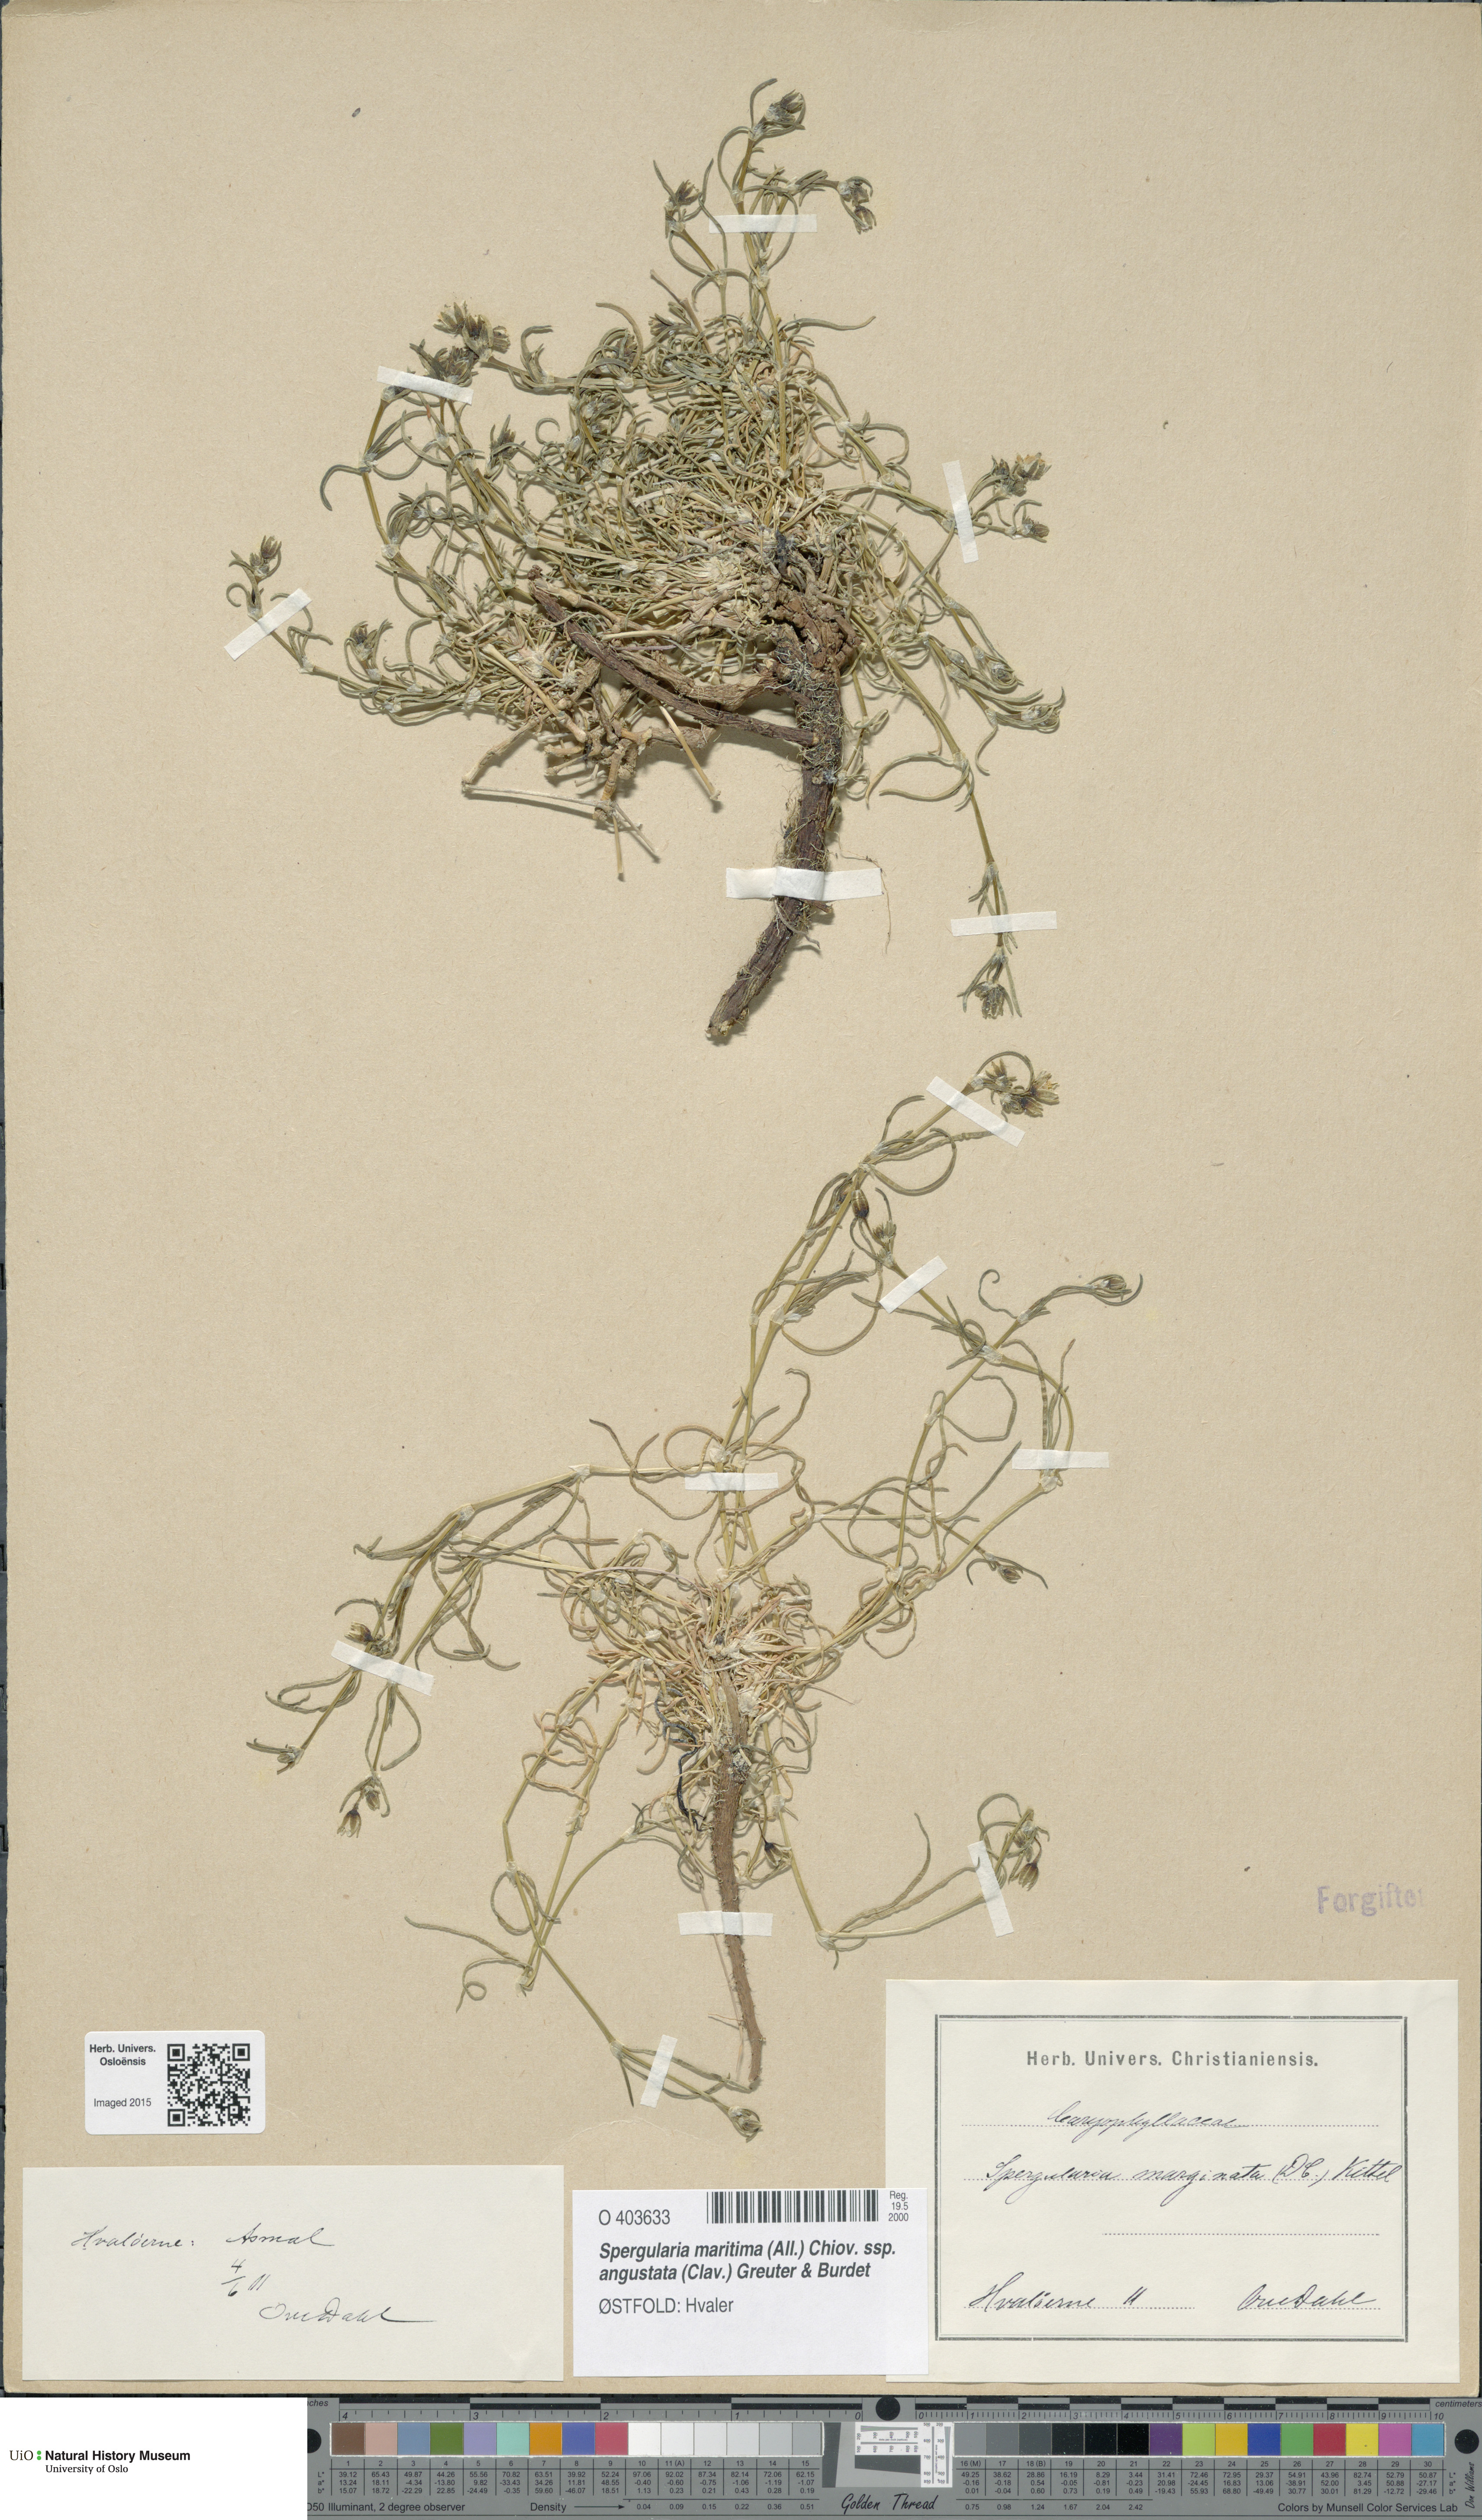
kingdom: Plantae
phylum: Tracheophyta
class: Magnoliopsida
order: Caryophyllales
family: Caryophyllaceae
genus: Spergularia
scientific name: Spergularia media
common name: Greater sea-spurrey
